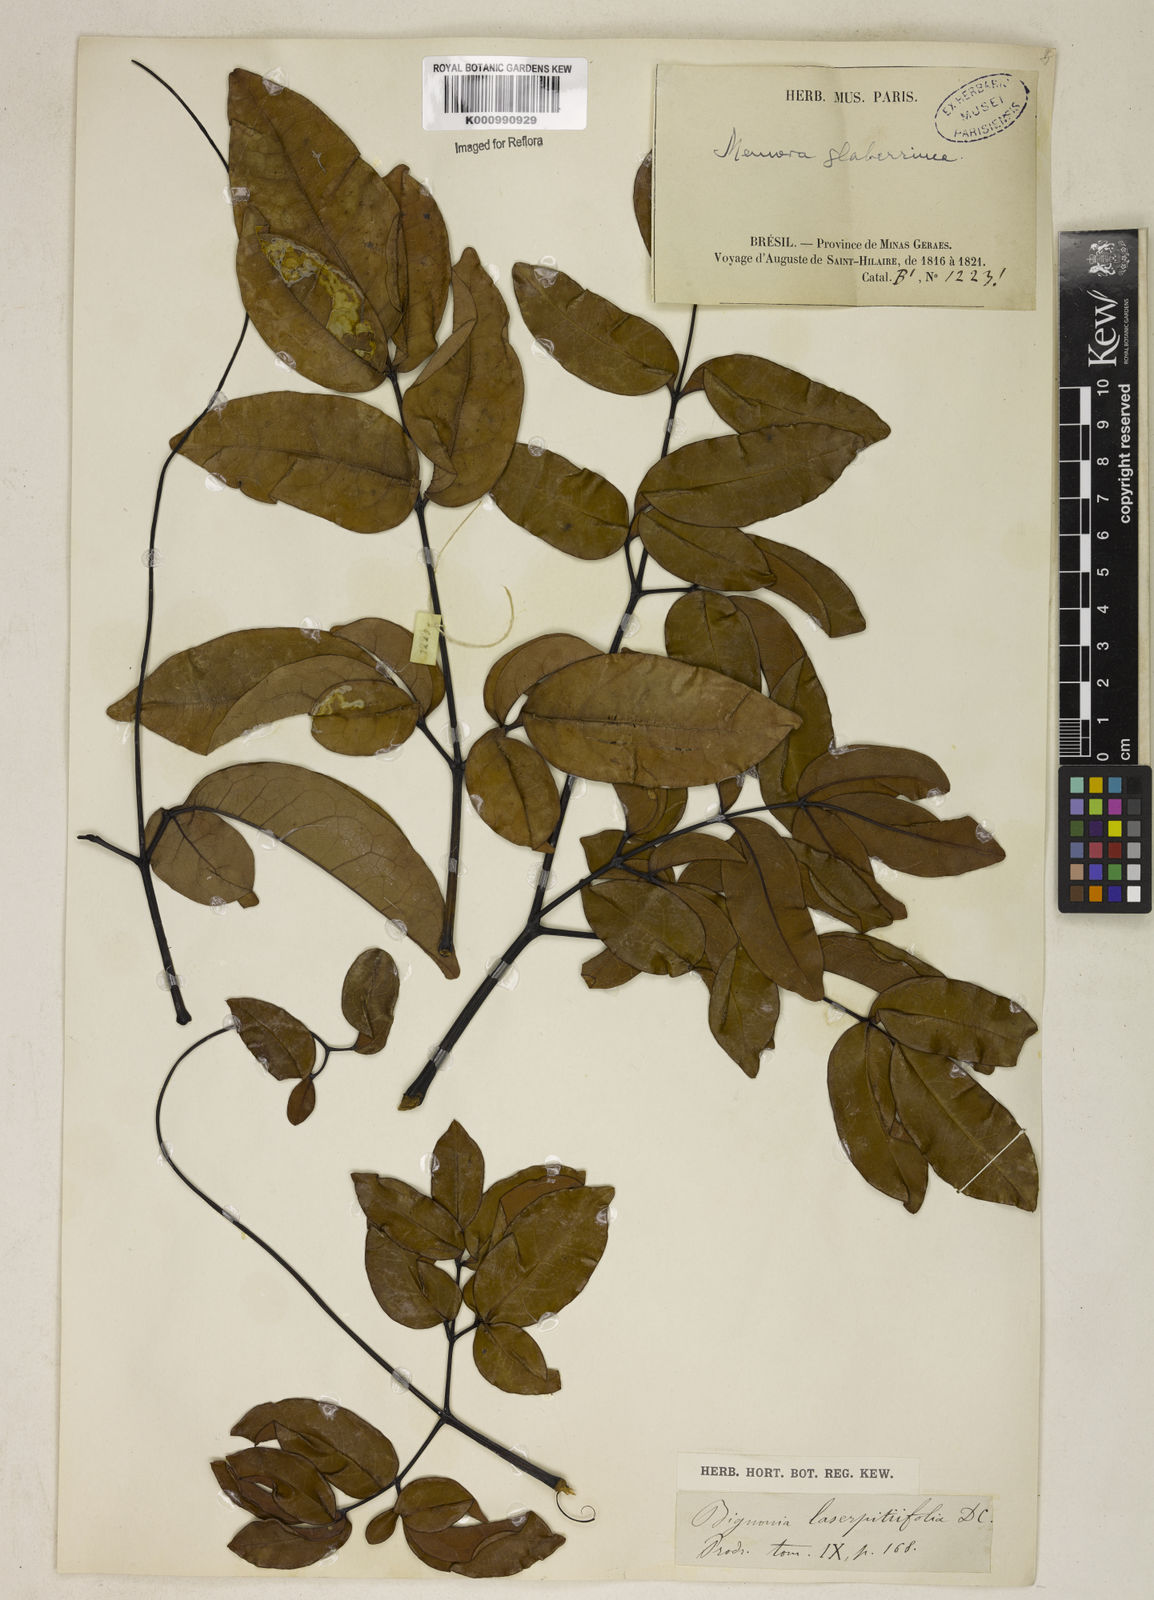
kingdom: Plantae
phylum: Tracheophyta
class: Magnoliopsida
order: Lamiales
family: Bignoniaceae
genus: Adenocalymma
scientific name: Adenocalymma pedunculatum
